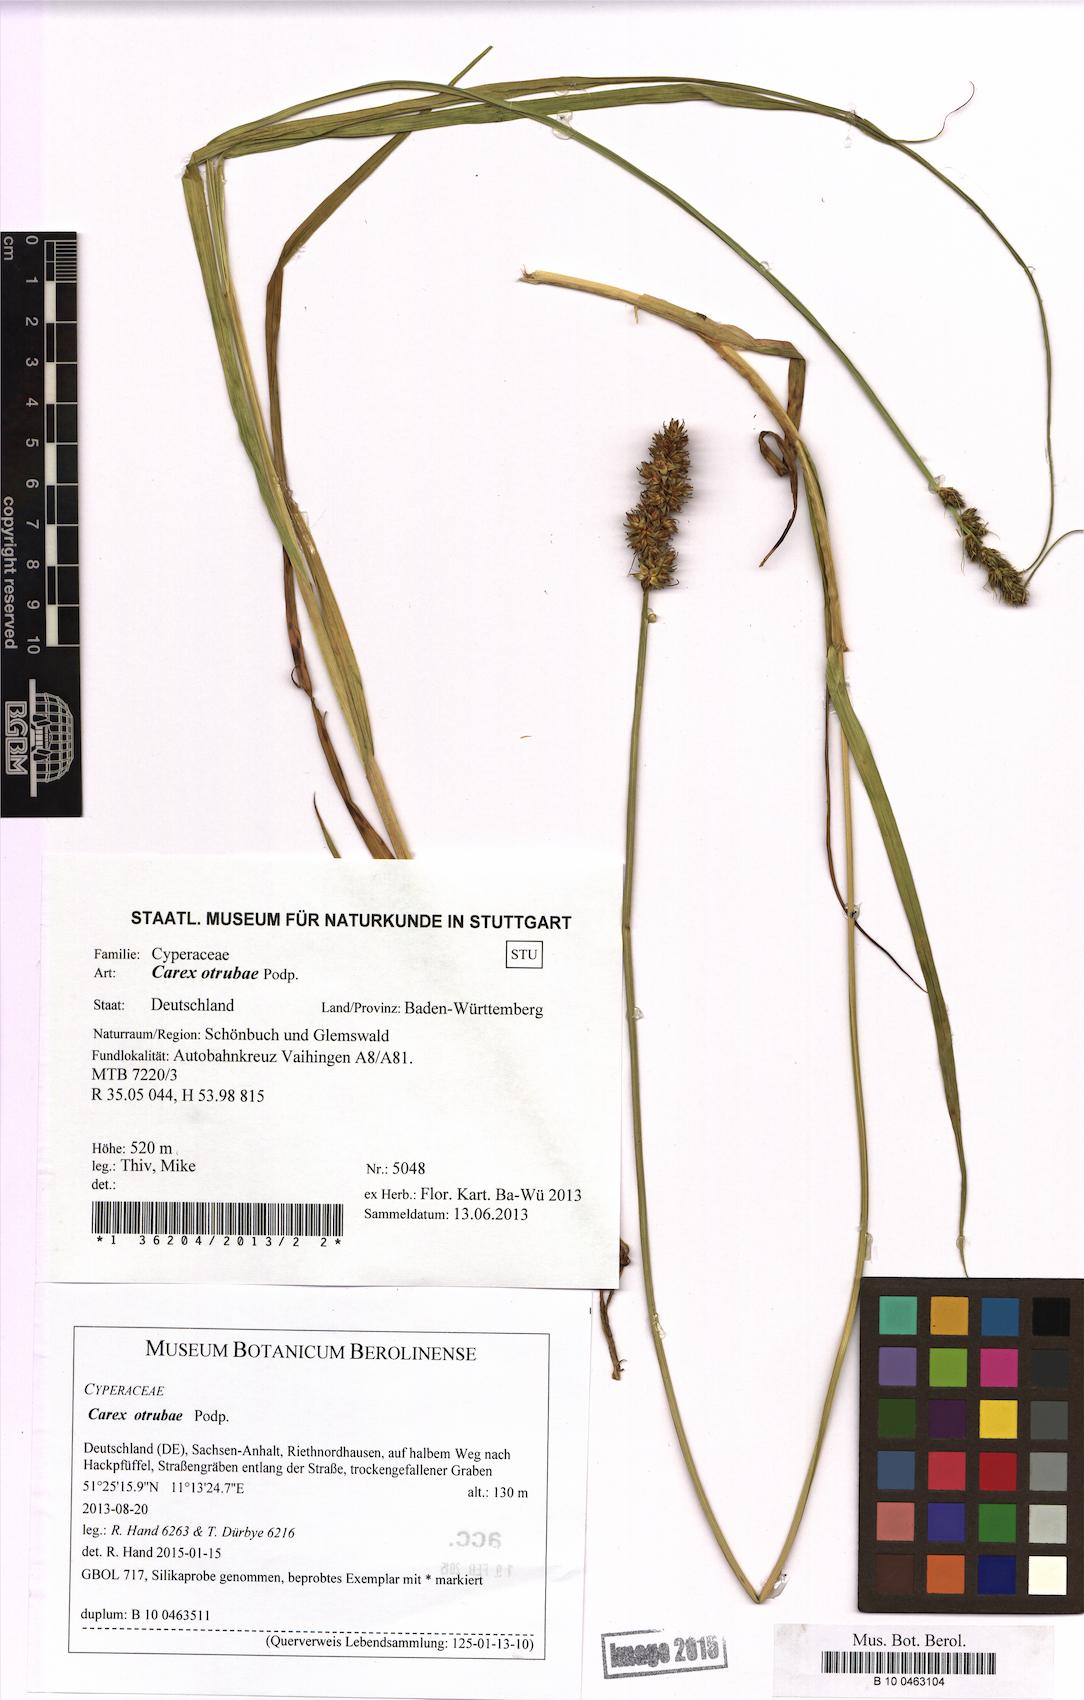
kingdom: Plantae
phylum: Tracheophyta
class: Liliopsida
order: Poales
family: Cyperaceae
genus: Carex
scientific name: Carex otrubae
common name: False fox-sedge
